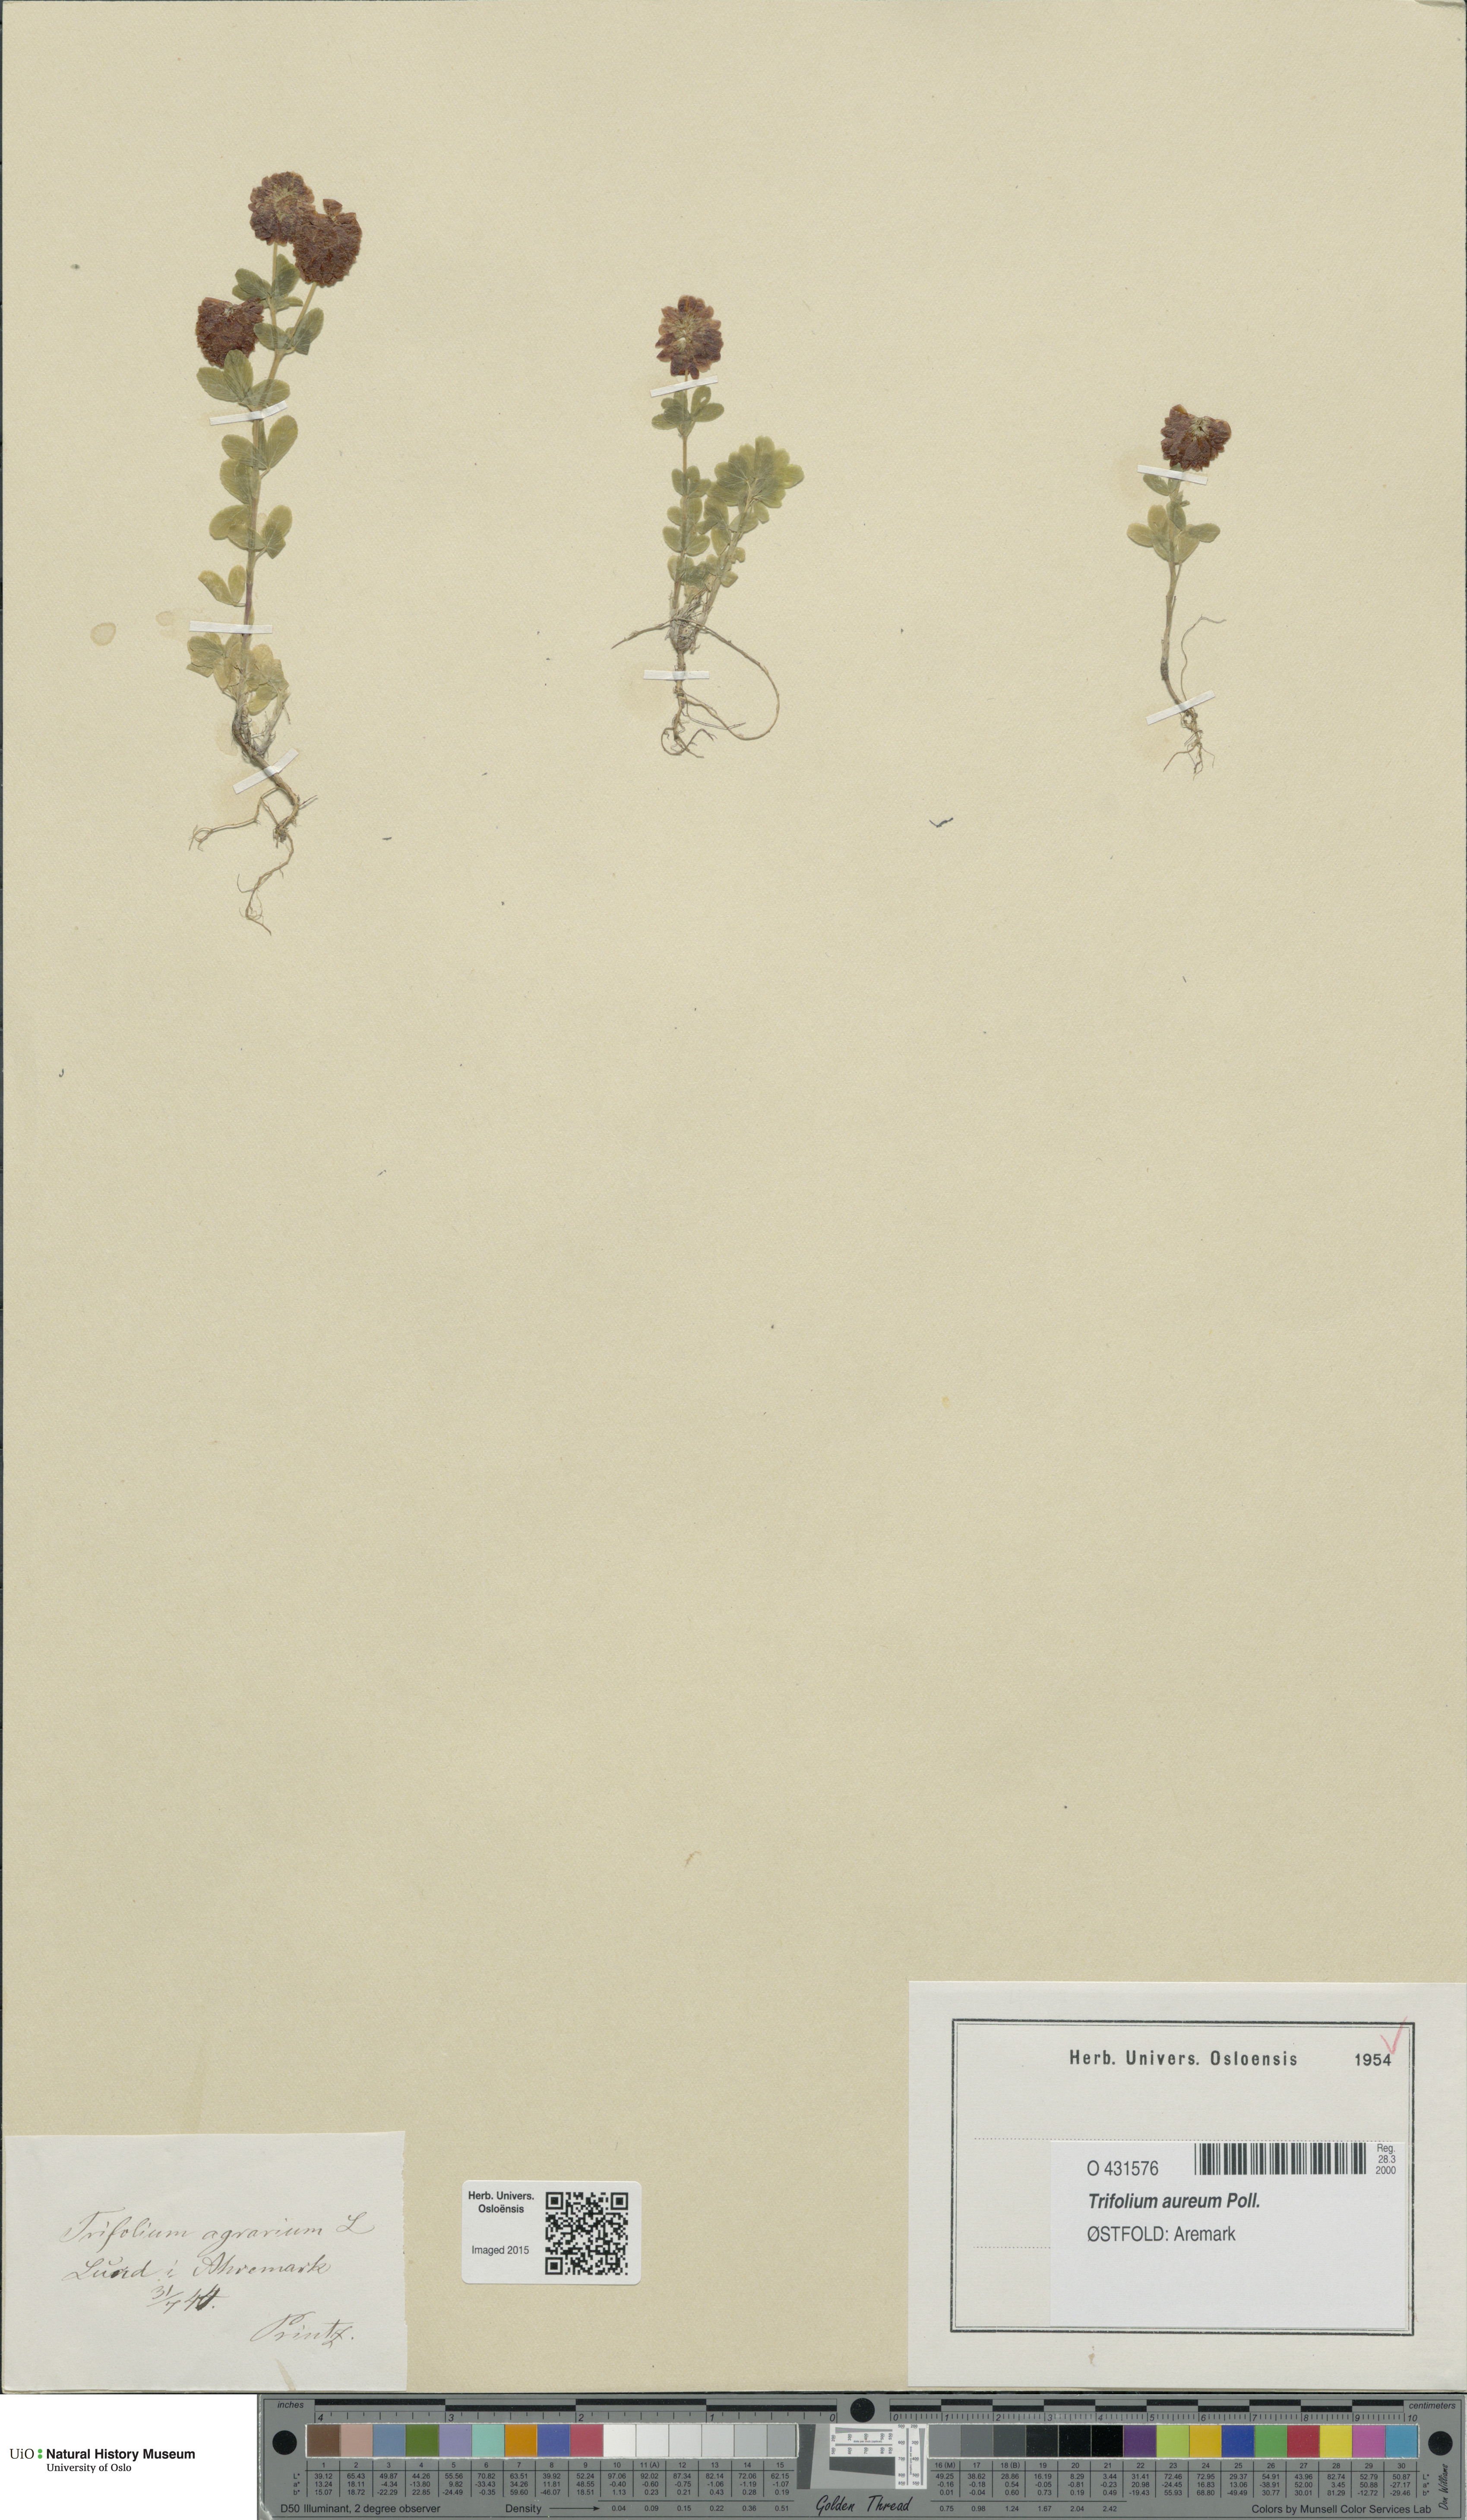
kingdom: Plantae
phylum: Tracheophyta
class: Magnoliopsida
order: Fabales
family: Fabaceae
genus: Trifolium
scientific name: Trifolium aureum
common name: Golden clover
